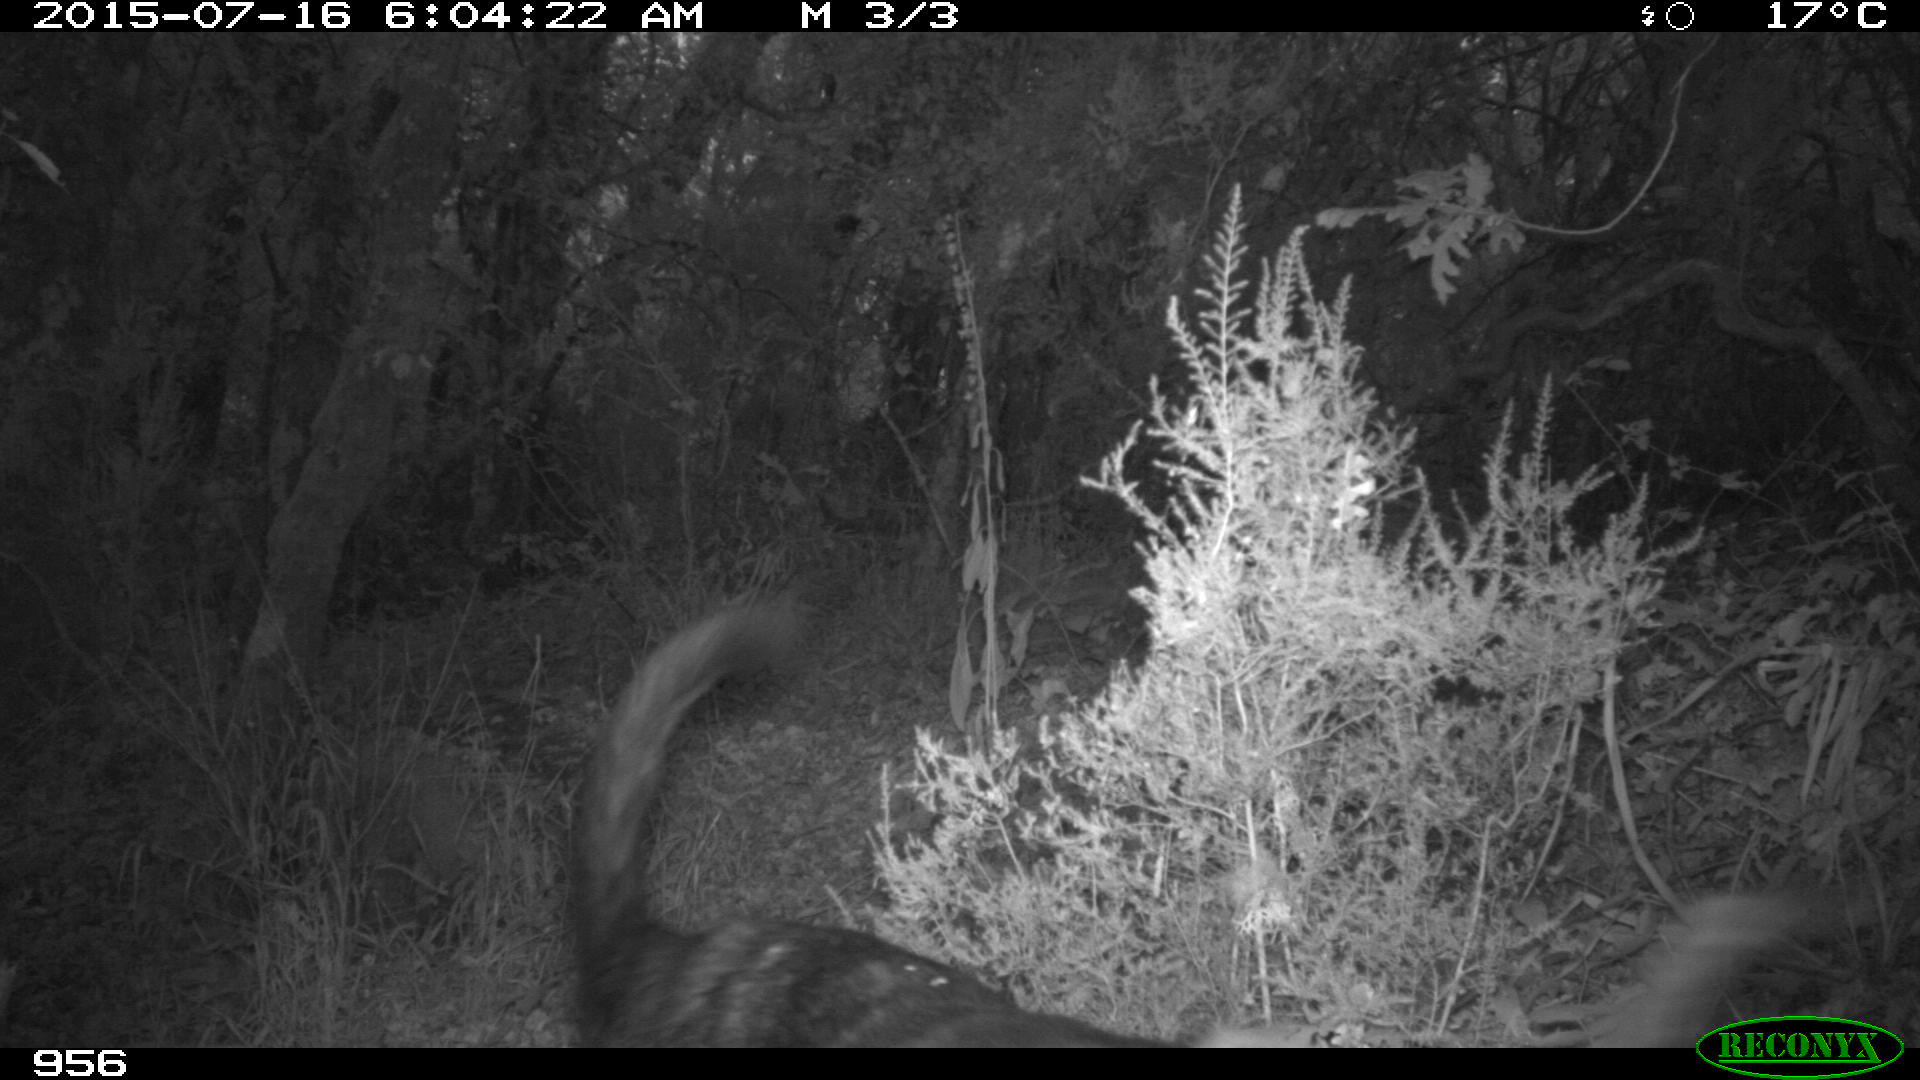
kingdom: Animalia
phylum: Chordata
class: Mammalia
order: Carnivora
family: Canidae
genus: Canis
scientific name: Canis lupus
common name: Gray wolf
